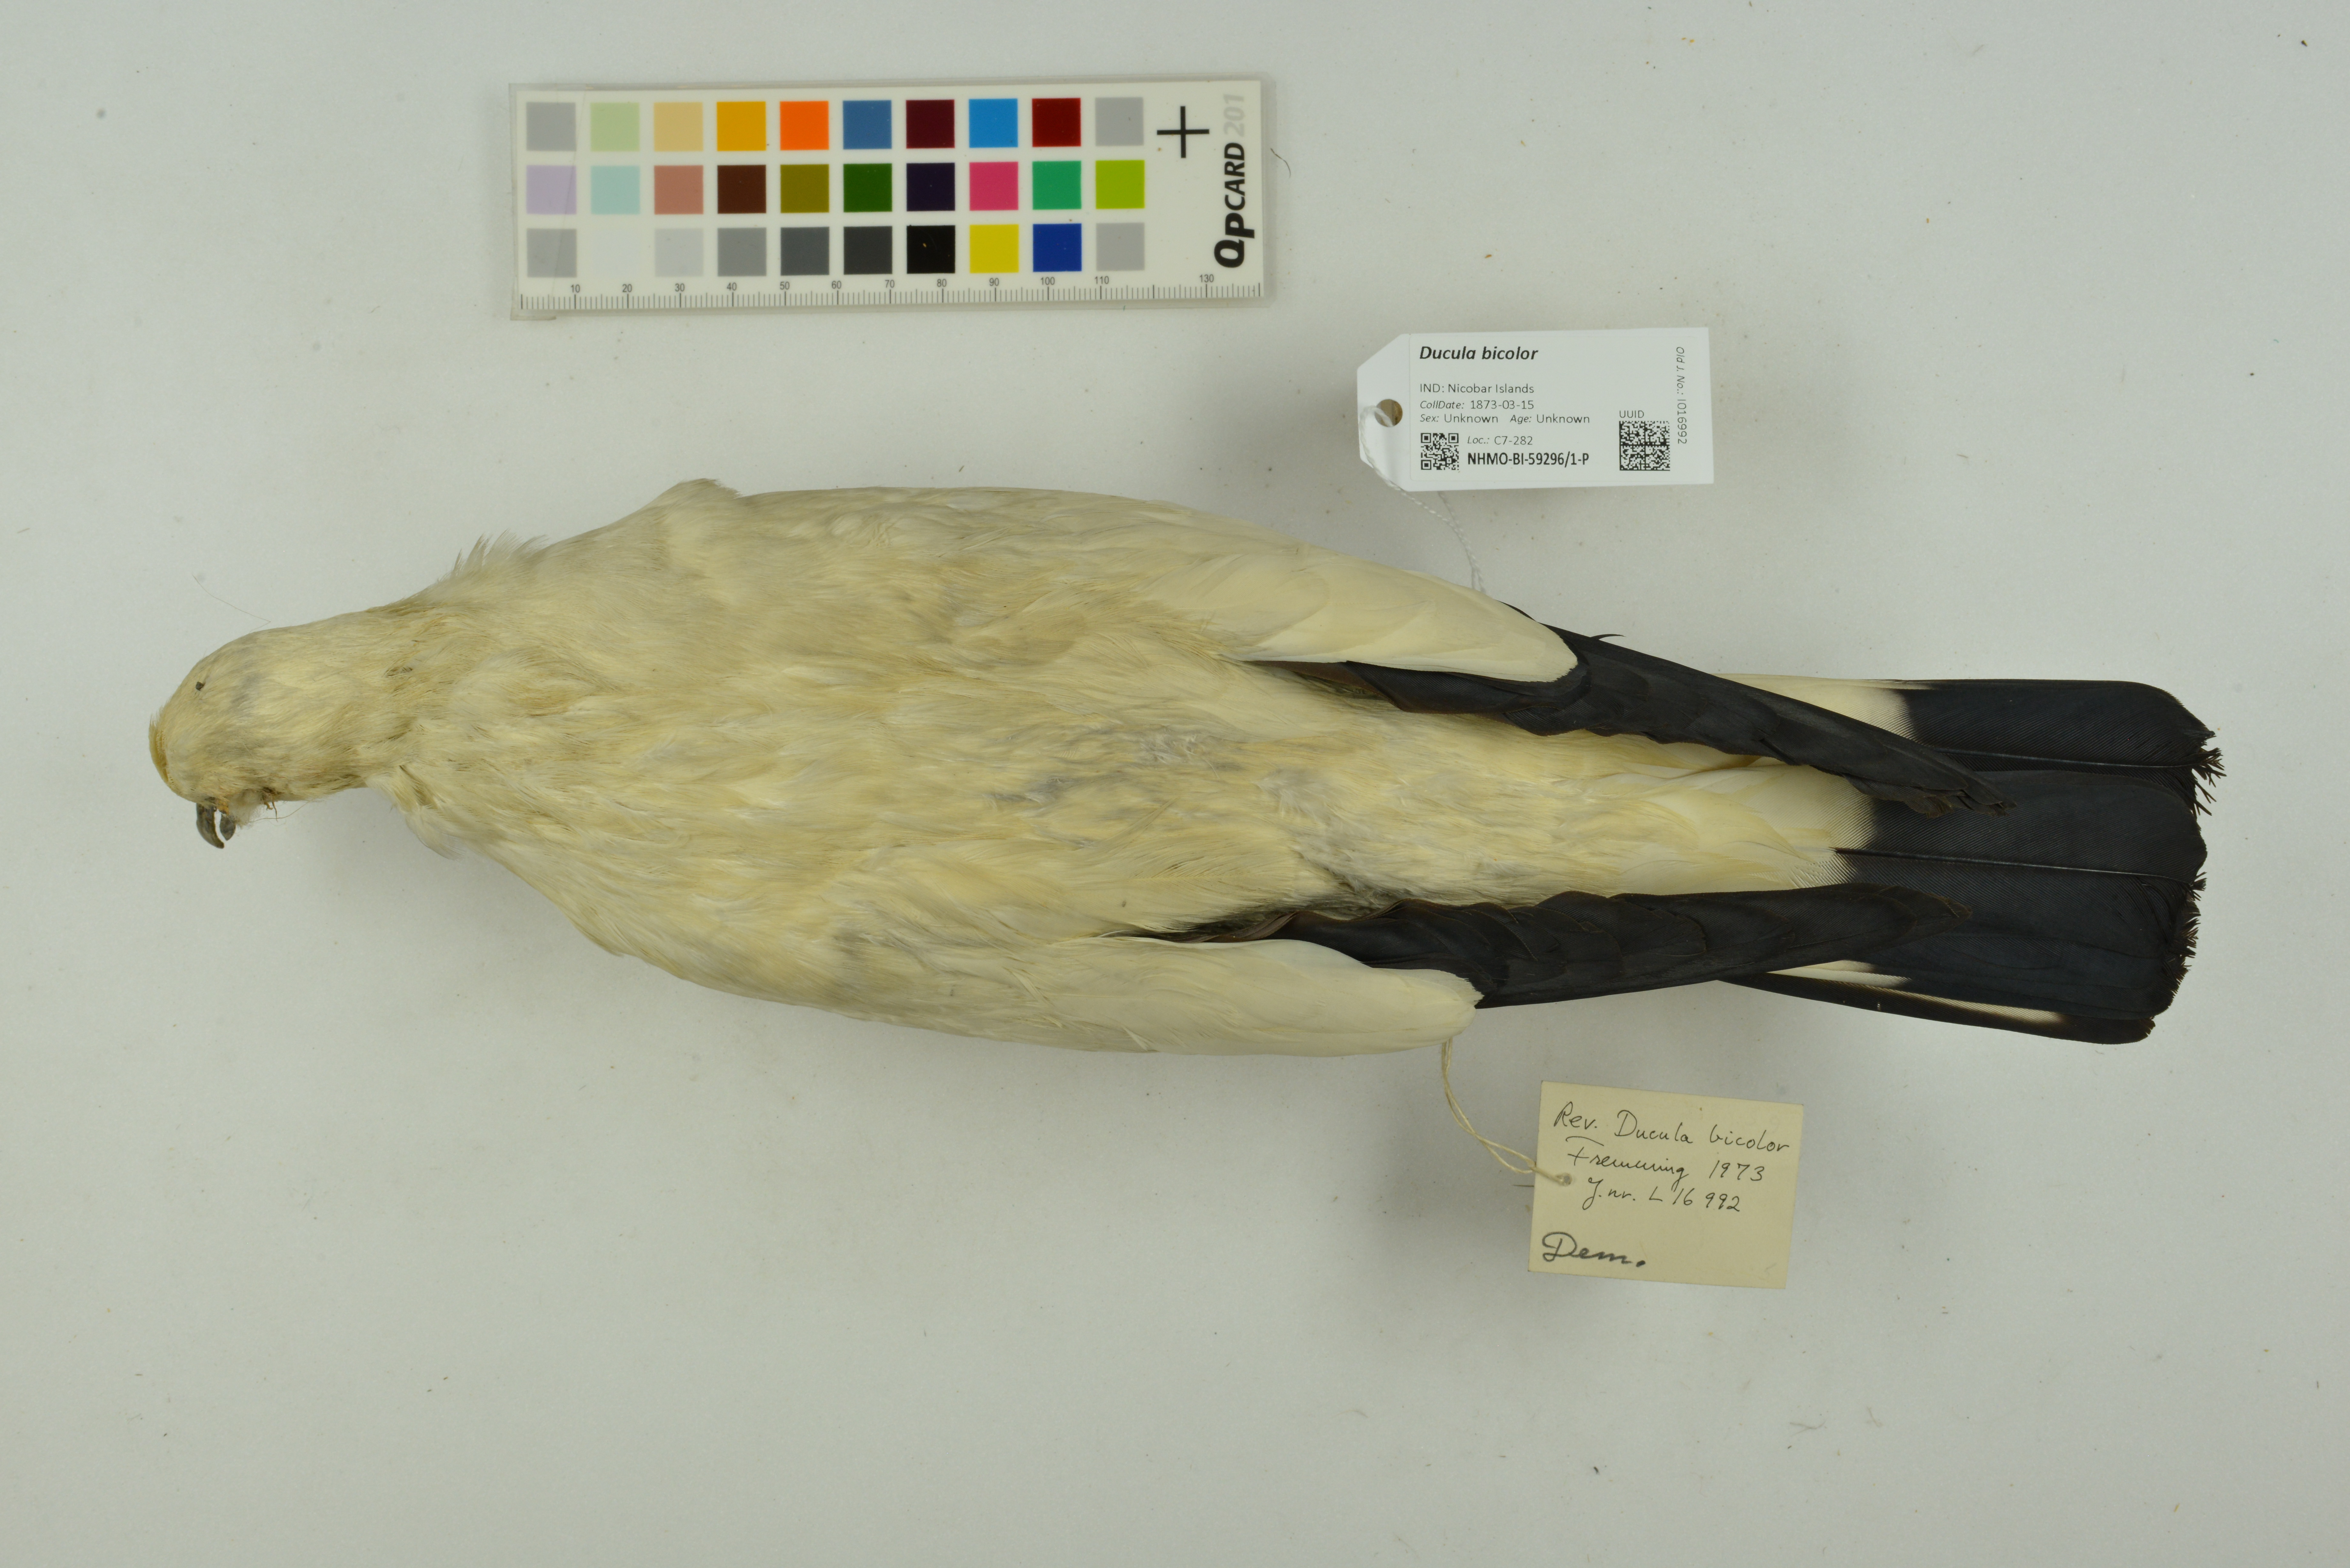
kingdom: Animalia
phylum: Chordata
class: Aves
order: Columbiformes
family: Columbidae
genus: Ducula
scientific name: Ducula bicolor
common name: Pied imperial pigeon
